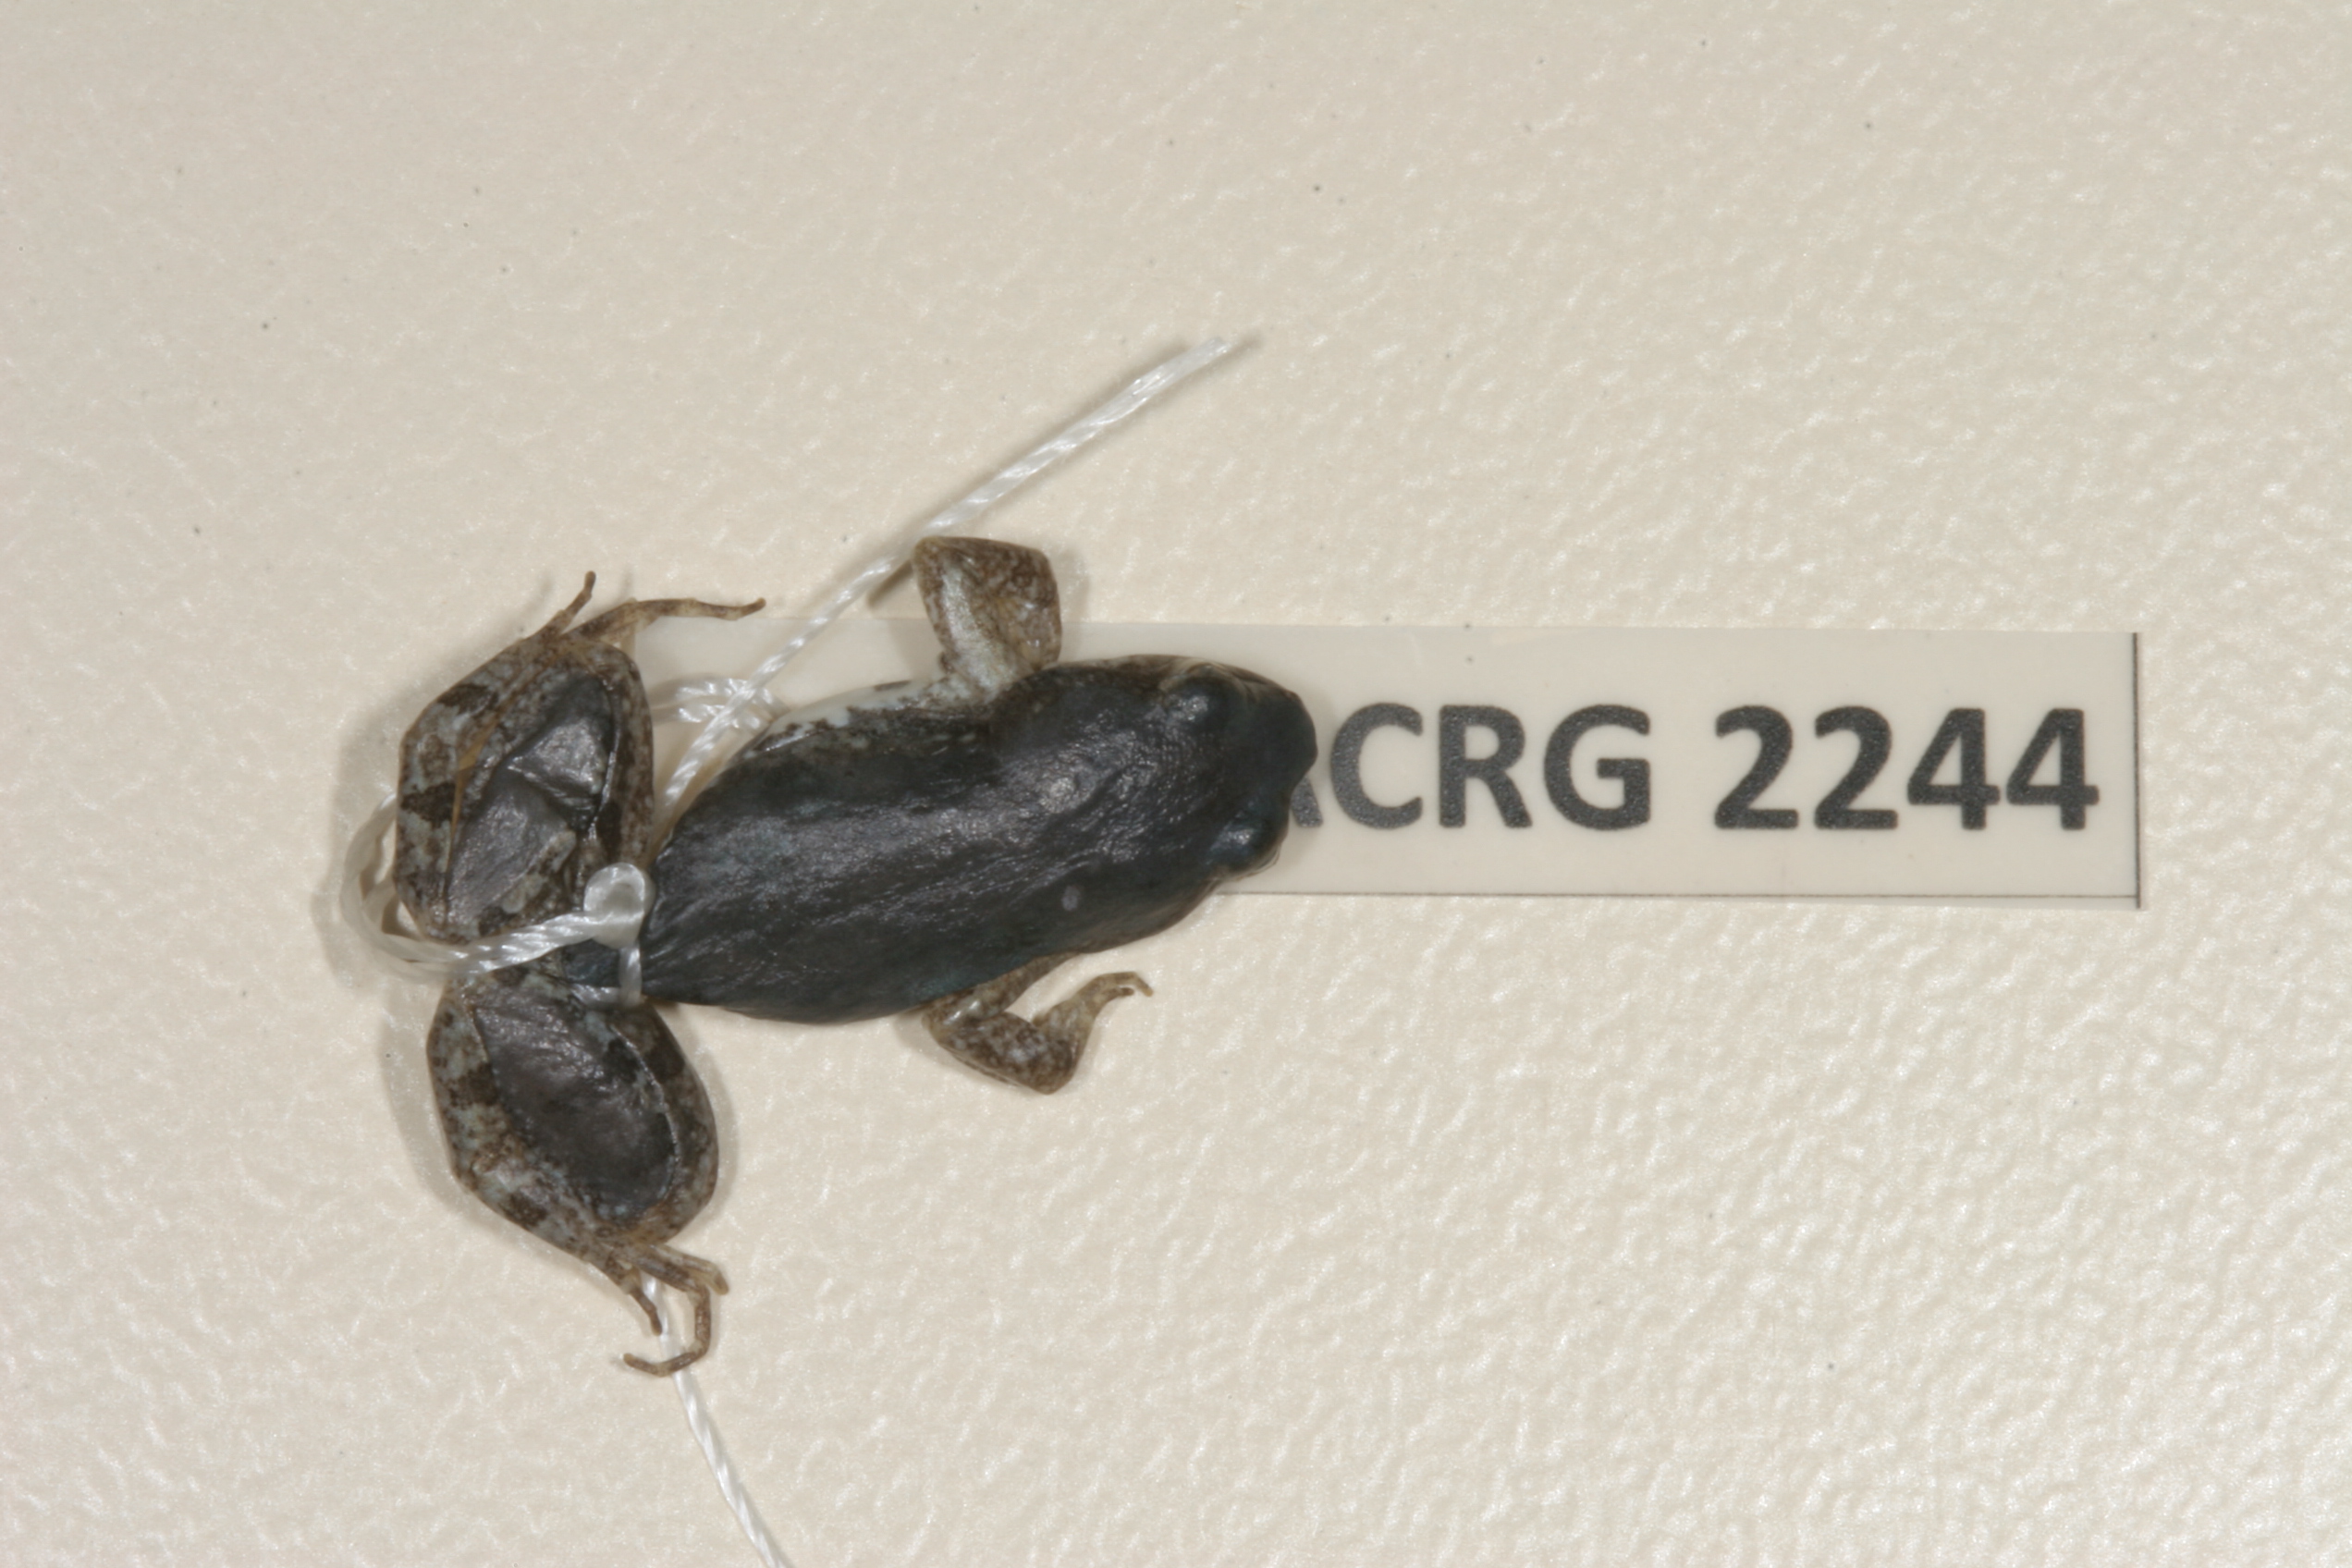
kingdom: Animalia
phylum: Chordata
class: Amphibia
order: Anura
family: Pyxicephalidae
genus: Cacosternum
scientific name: Cacosternum boettgeri
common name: Boettger's frog
